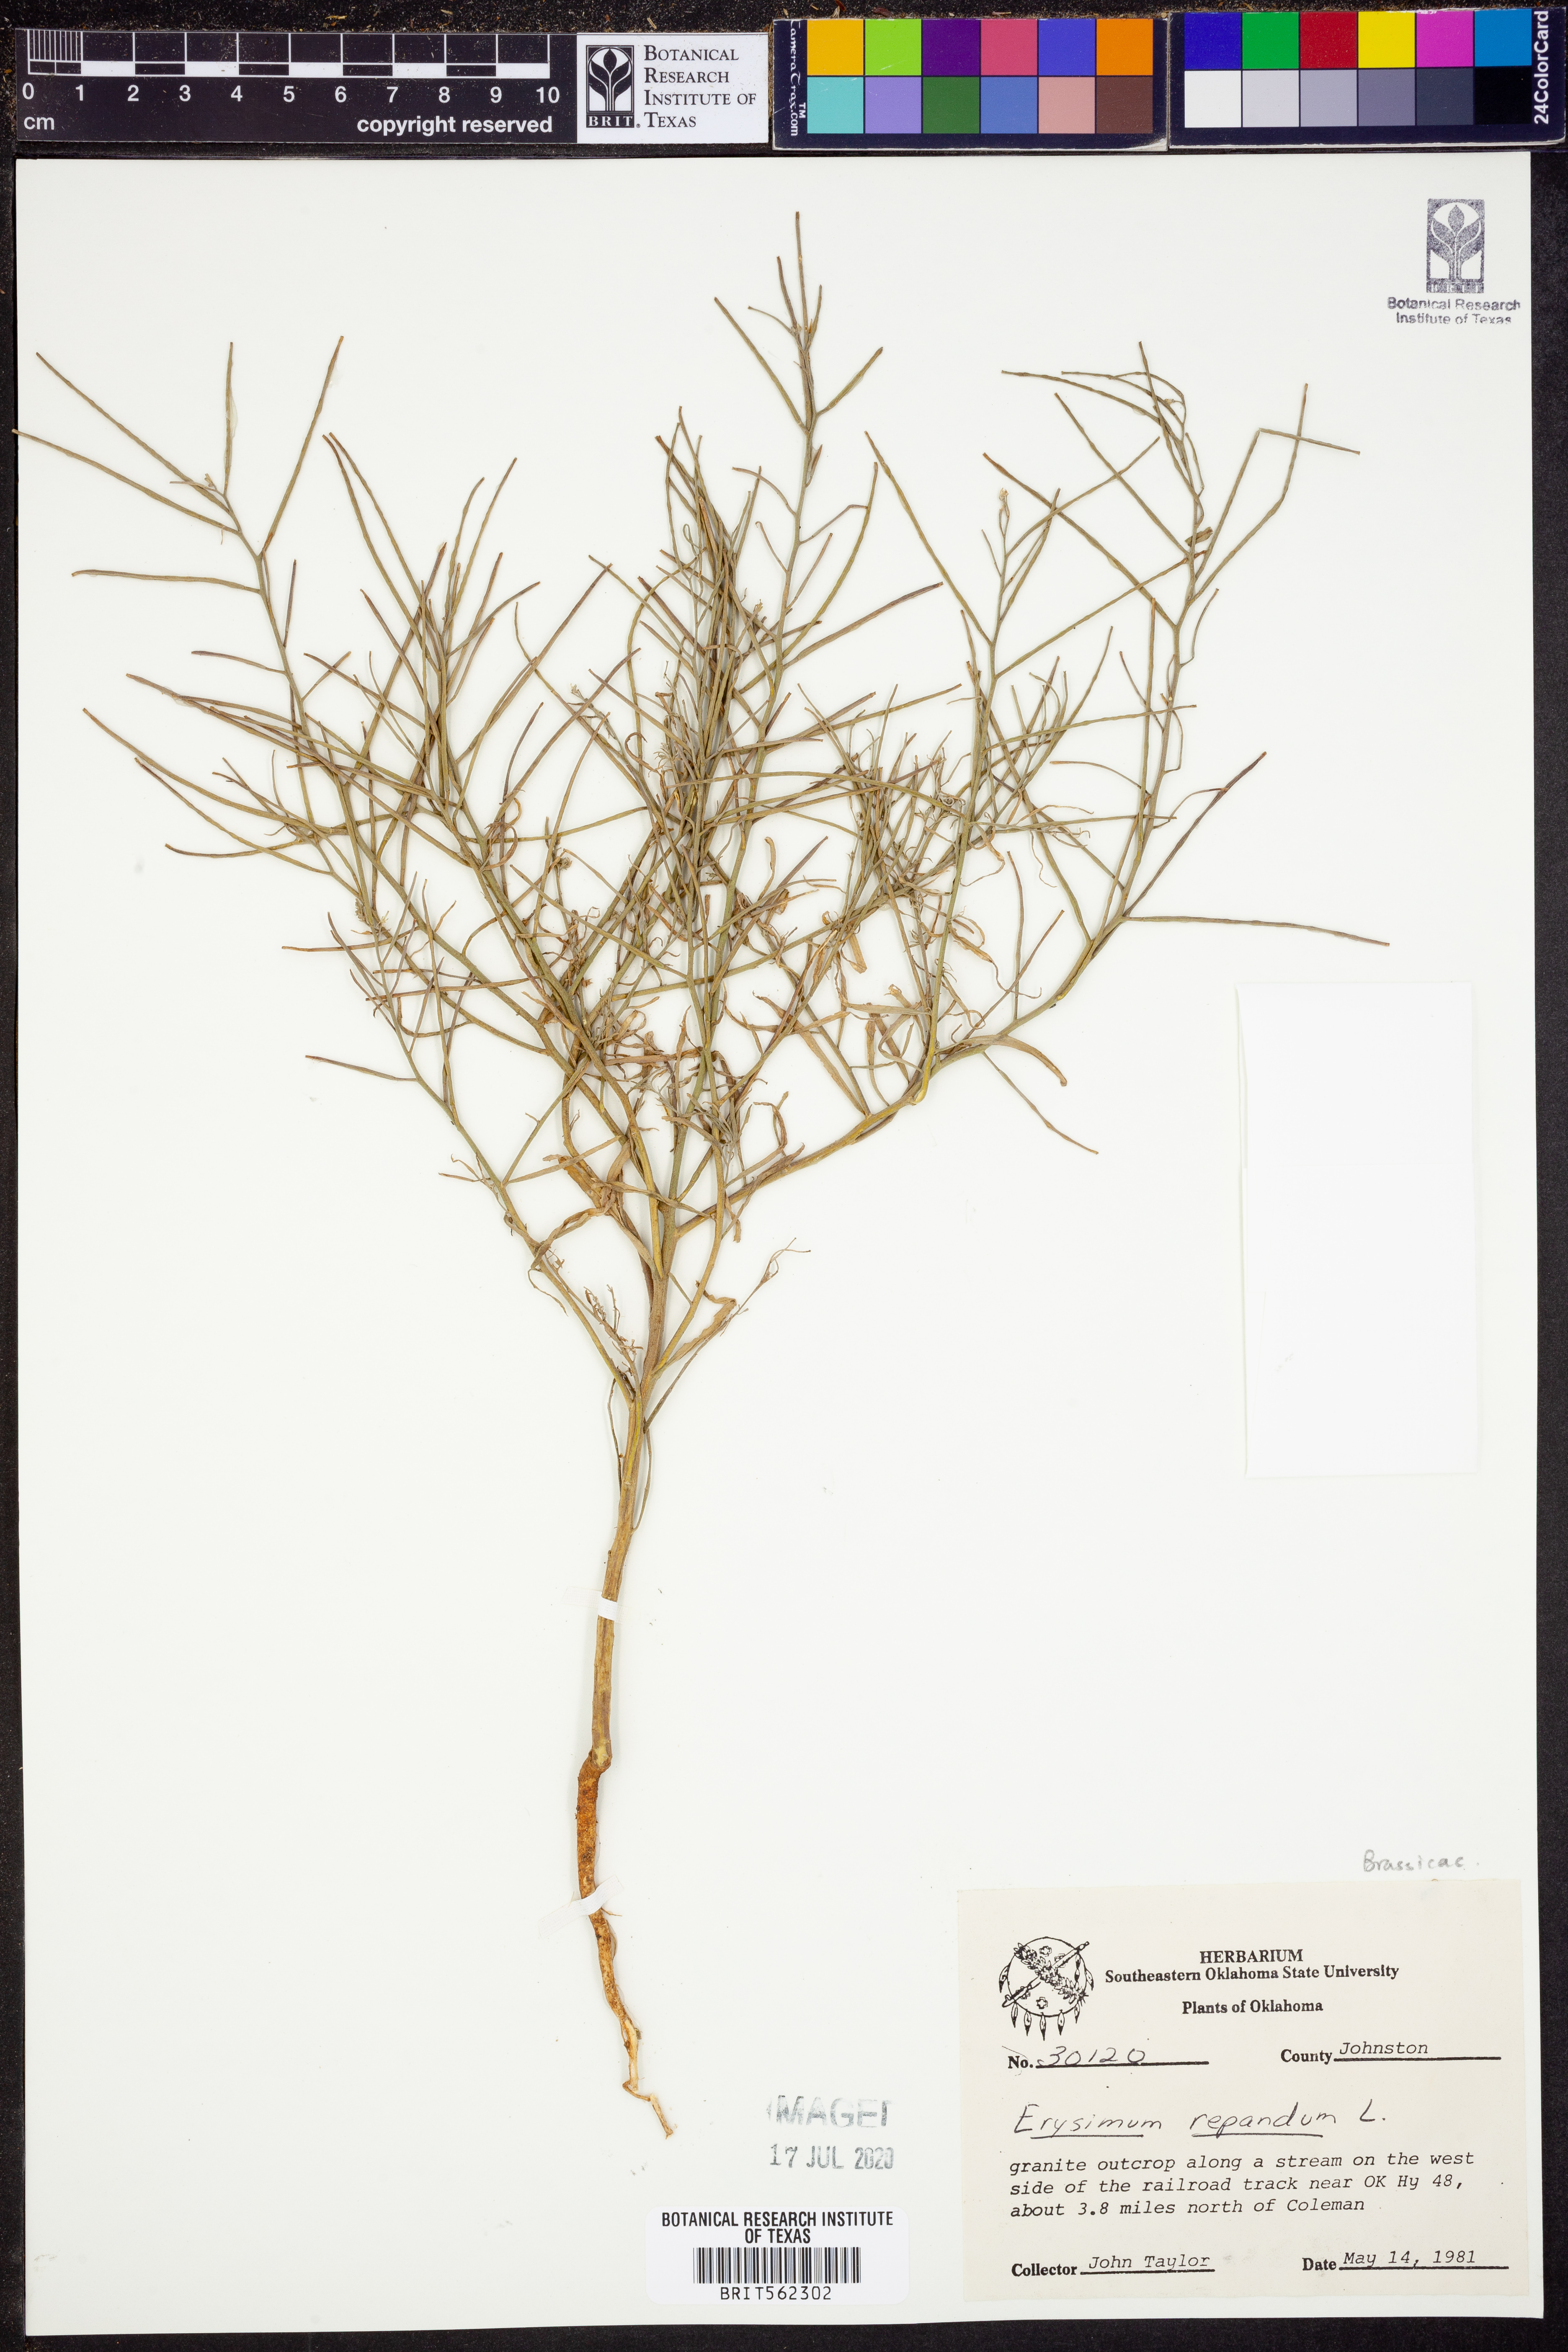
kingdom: Plantae
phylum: Tracheophyta
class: Magnoliopsida
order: Brassicales
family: Brassicaceae
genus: Erysimum
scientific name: Erysimum repandum
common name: Spreading wallflower
